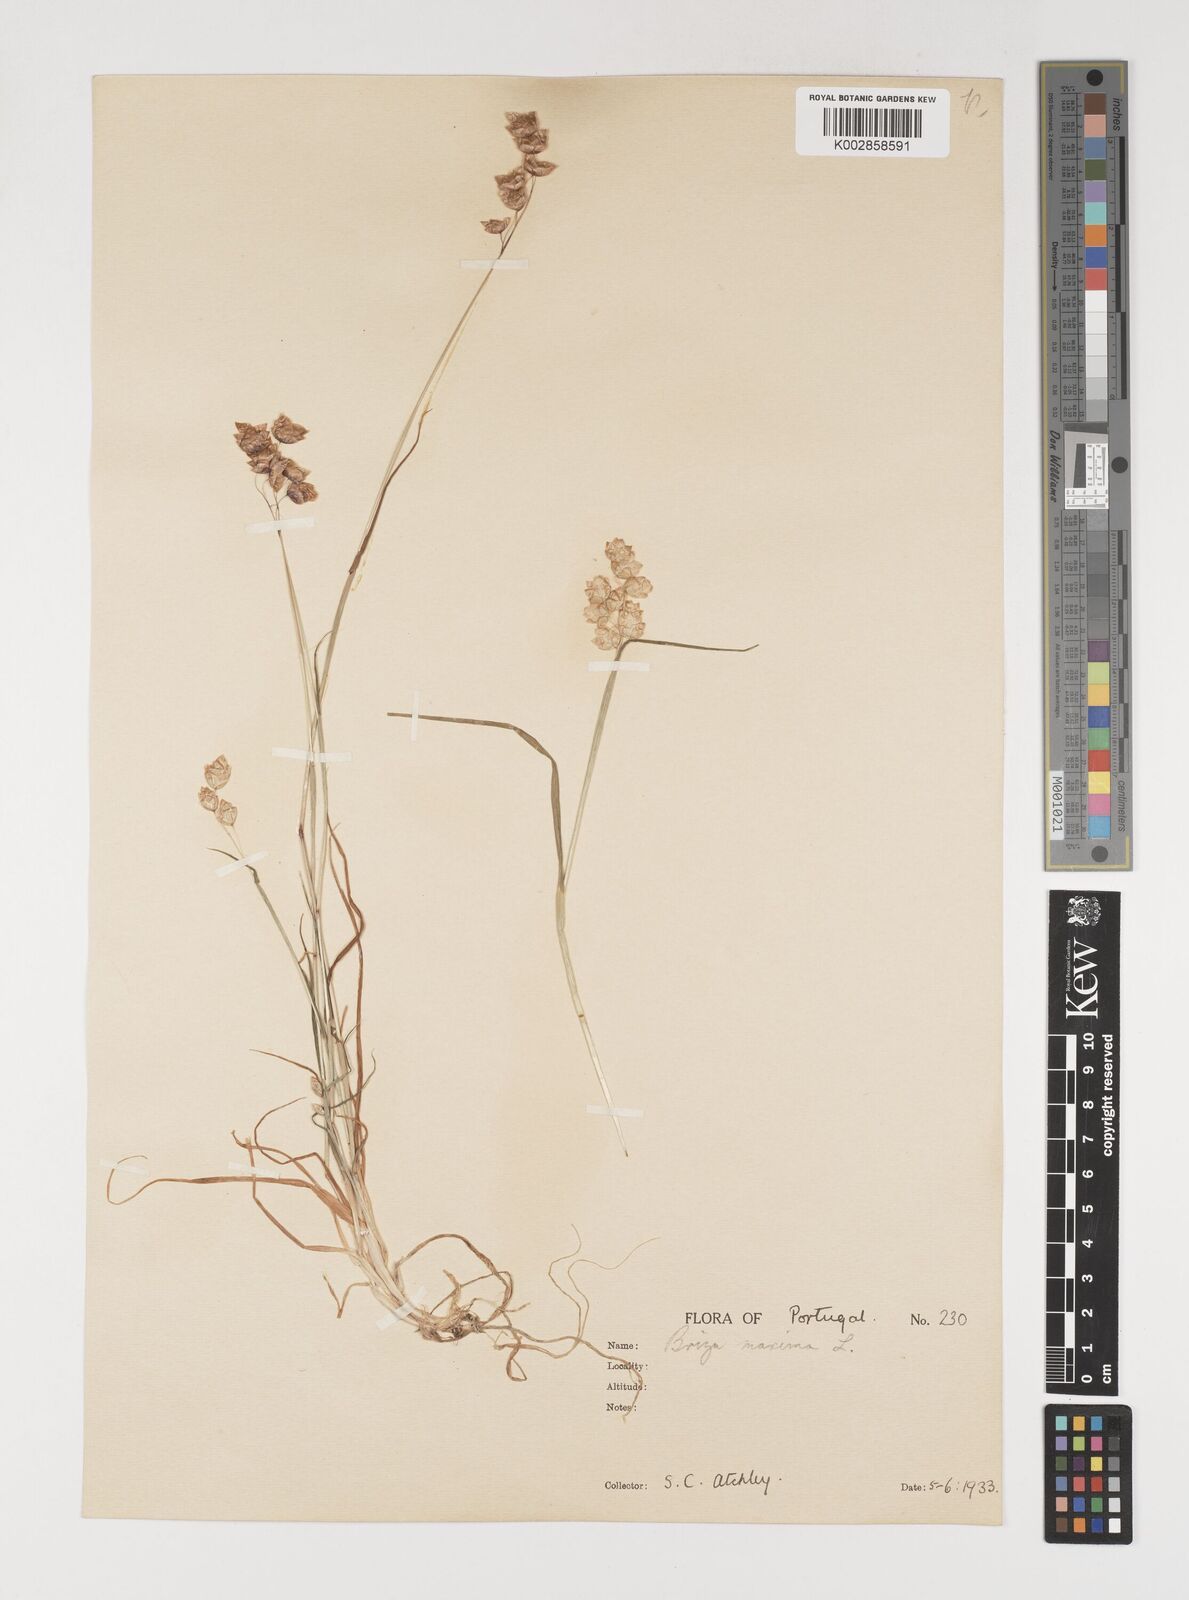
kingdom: Plantae
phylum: Tracheophyta
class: Liliopsida
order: Poales
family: Poaceae
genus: Briza
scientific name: Briza maxima
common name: Big quakinggrass
